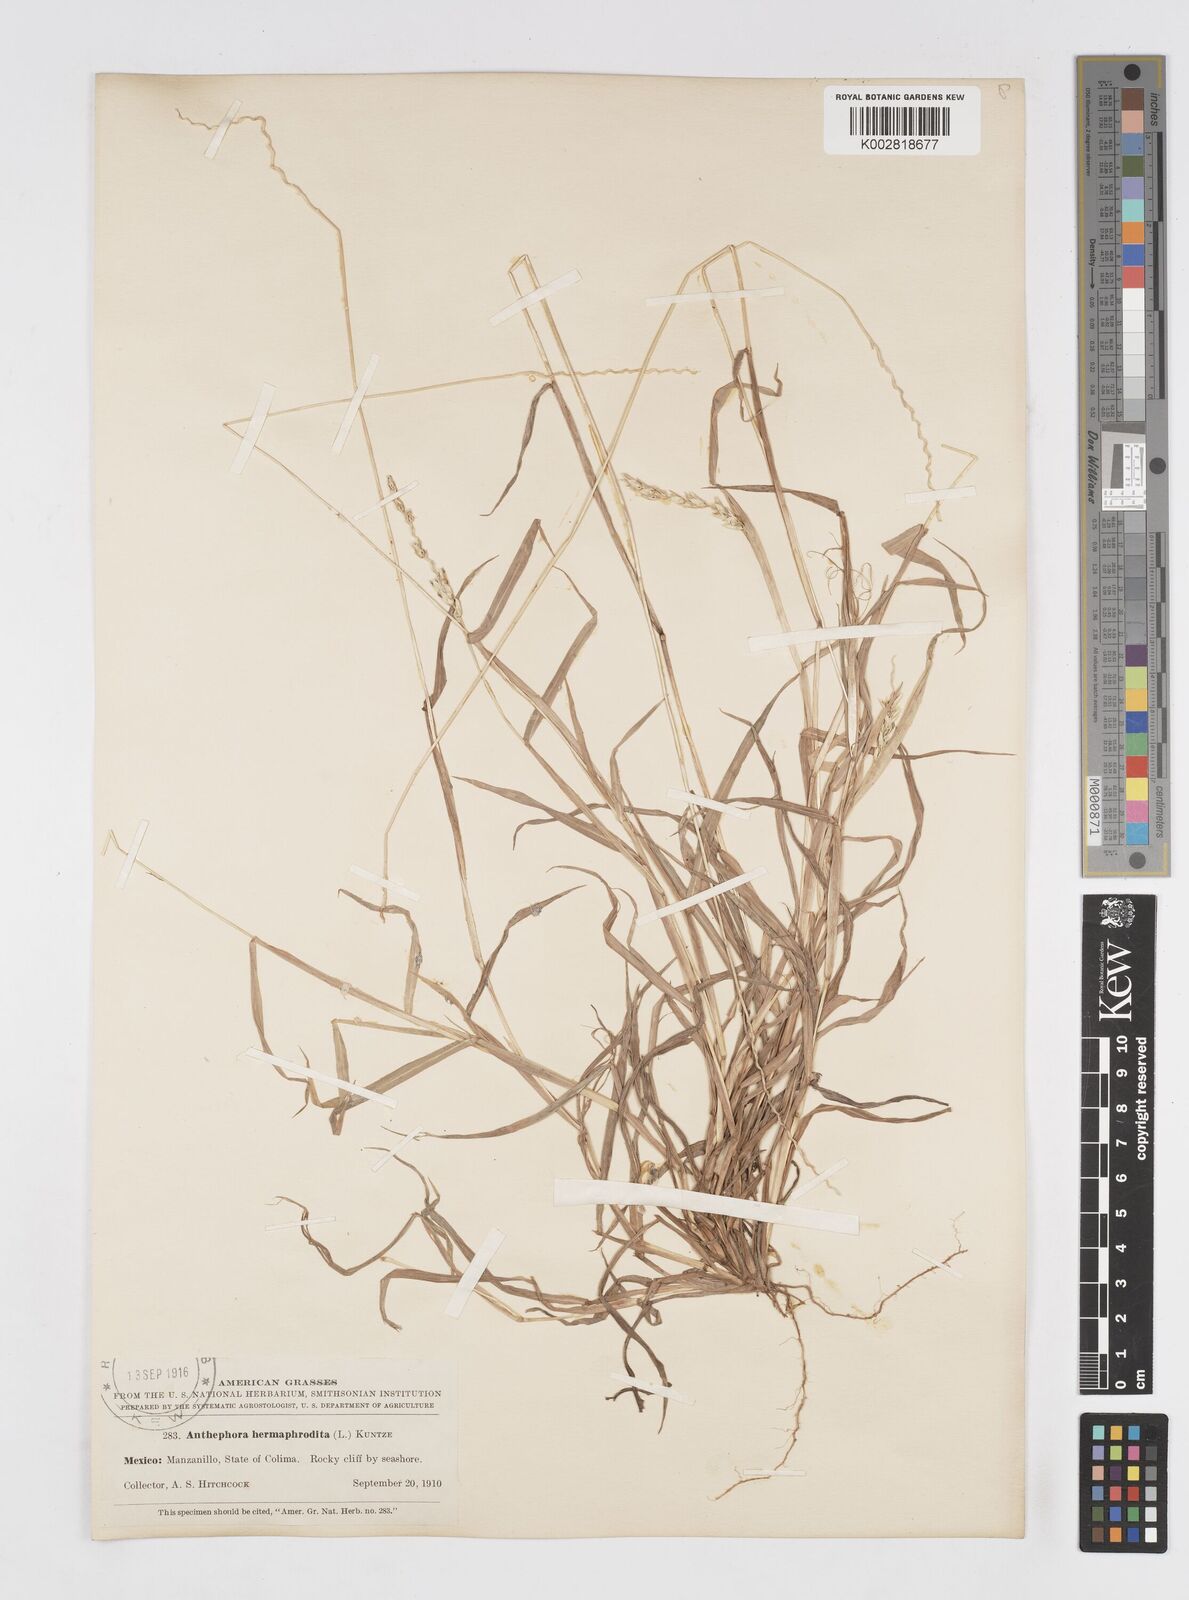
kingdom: Plantae
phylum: Tracheophyta
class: Liliopsida
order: Poales
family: Poaceae
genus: Anthephora
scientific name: Anthephora hermaphrodita
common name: Oldfield grass
